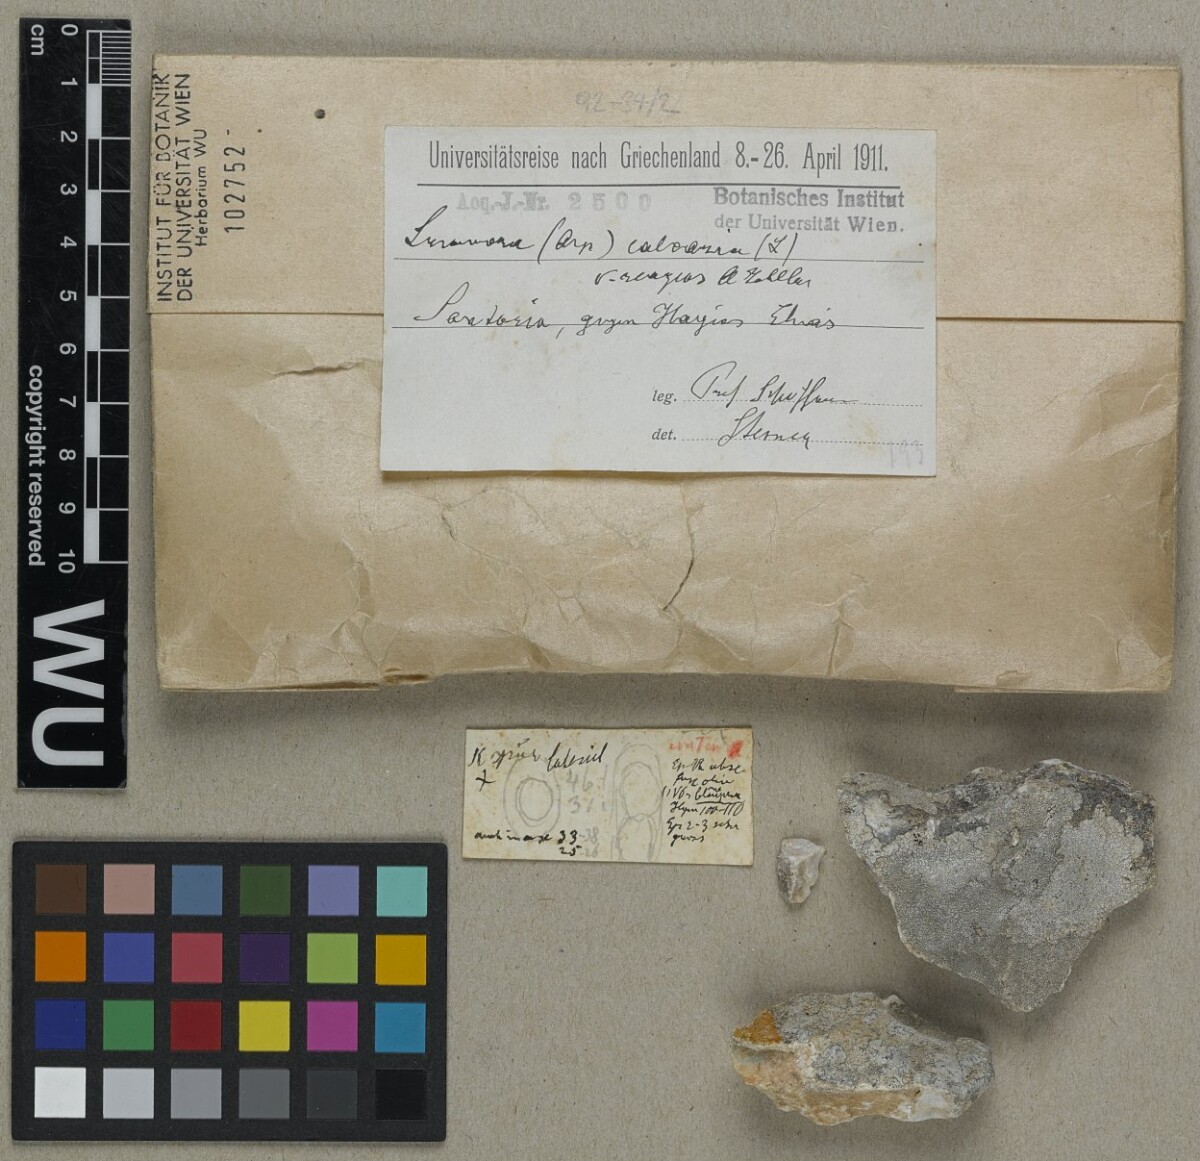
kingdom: Fungi
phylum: Ascomycota
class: Lecanoromycetes
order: Pertusariales
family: Megasporaceae
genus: Aspicilia
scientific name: Aspicilia reagens
